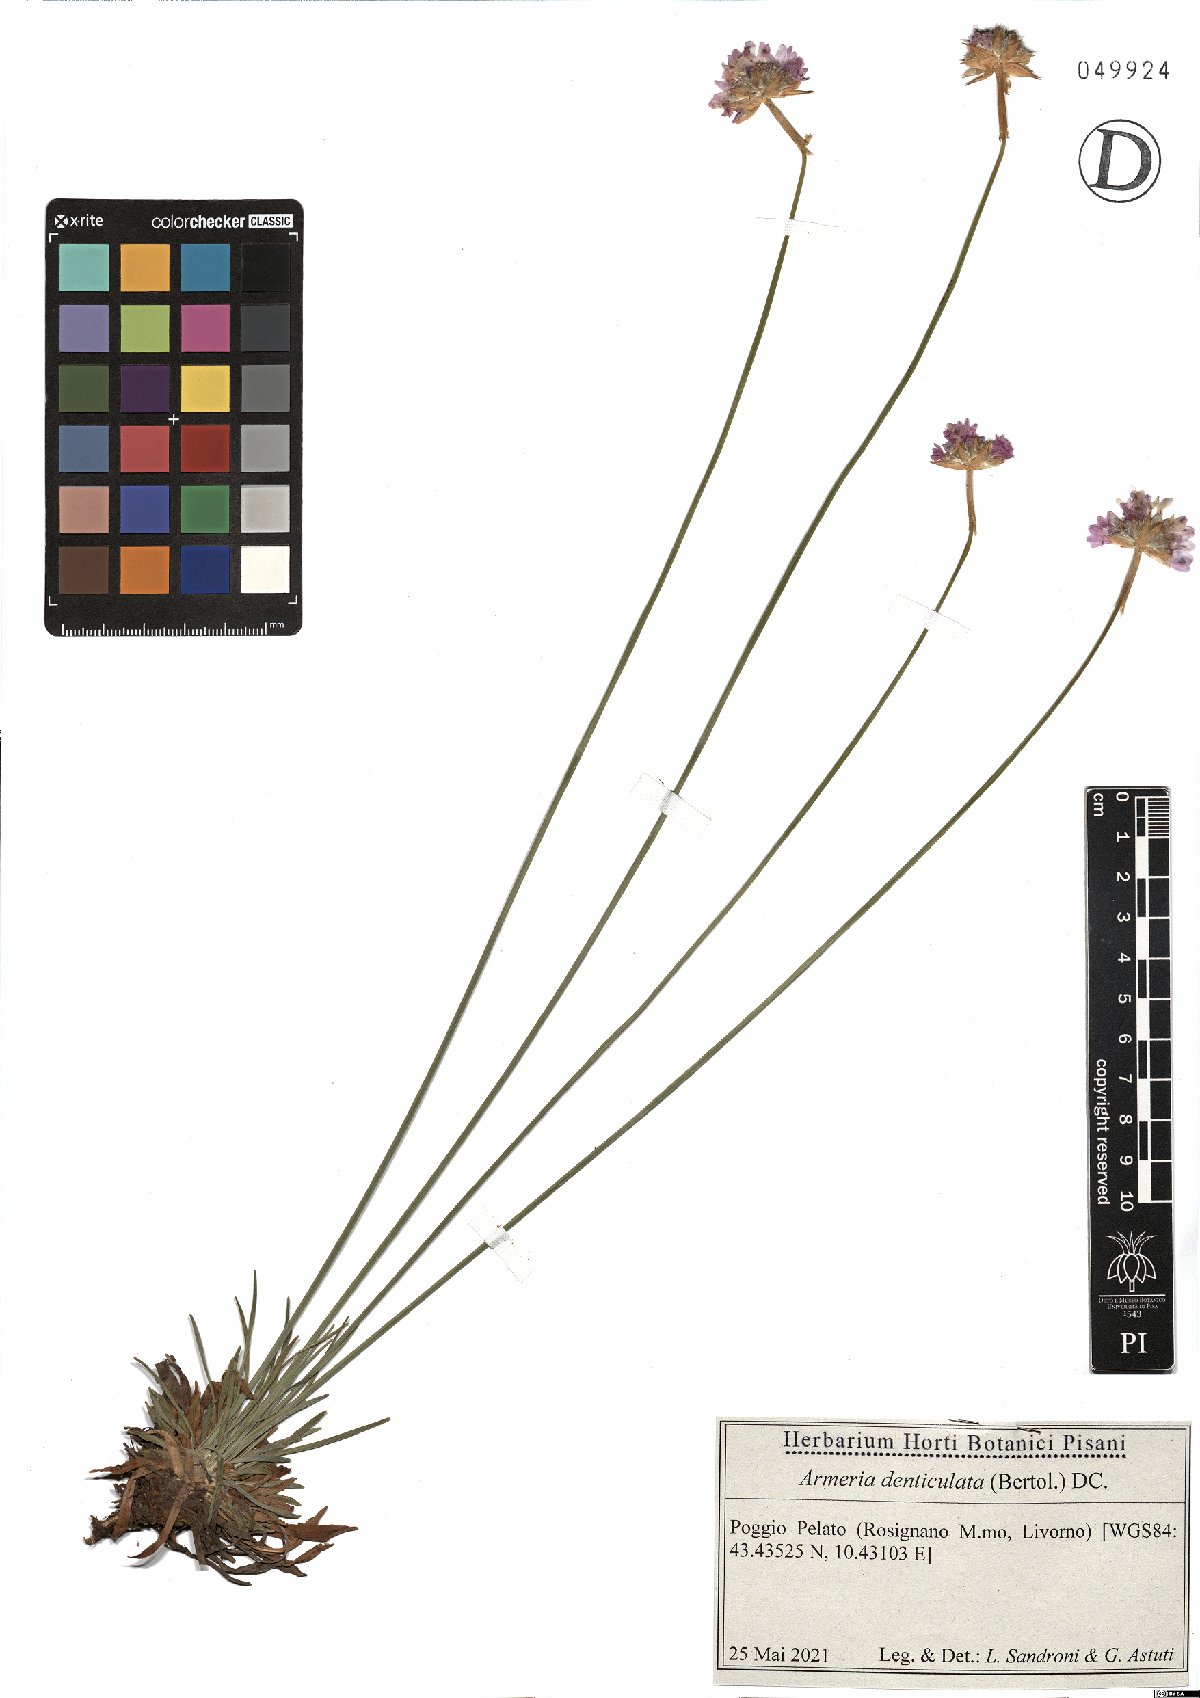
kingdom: Plantae
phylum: Tracheophyta
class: Magnoliopsida
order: Caryophyllales
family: Plumbaginaceae
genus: Armeria
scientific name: Armeria denticulata
